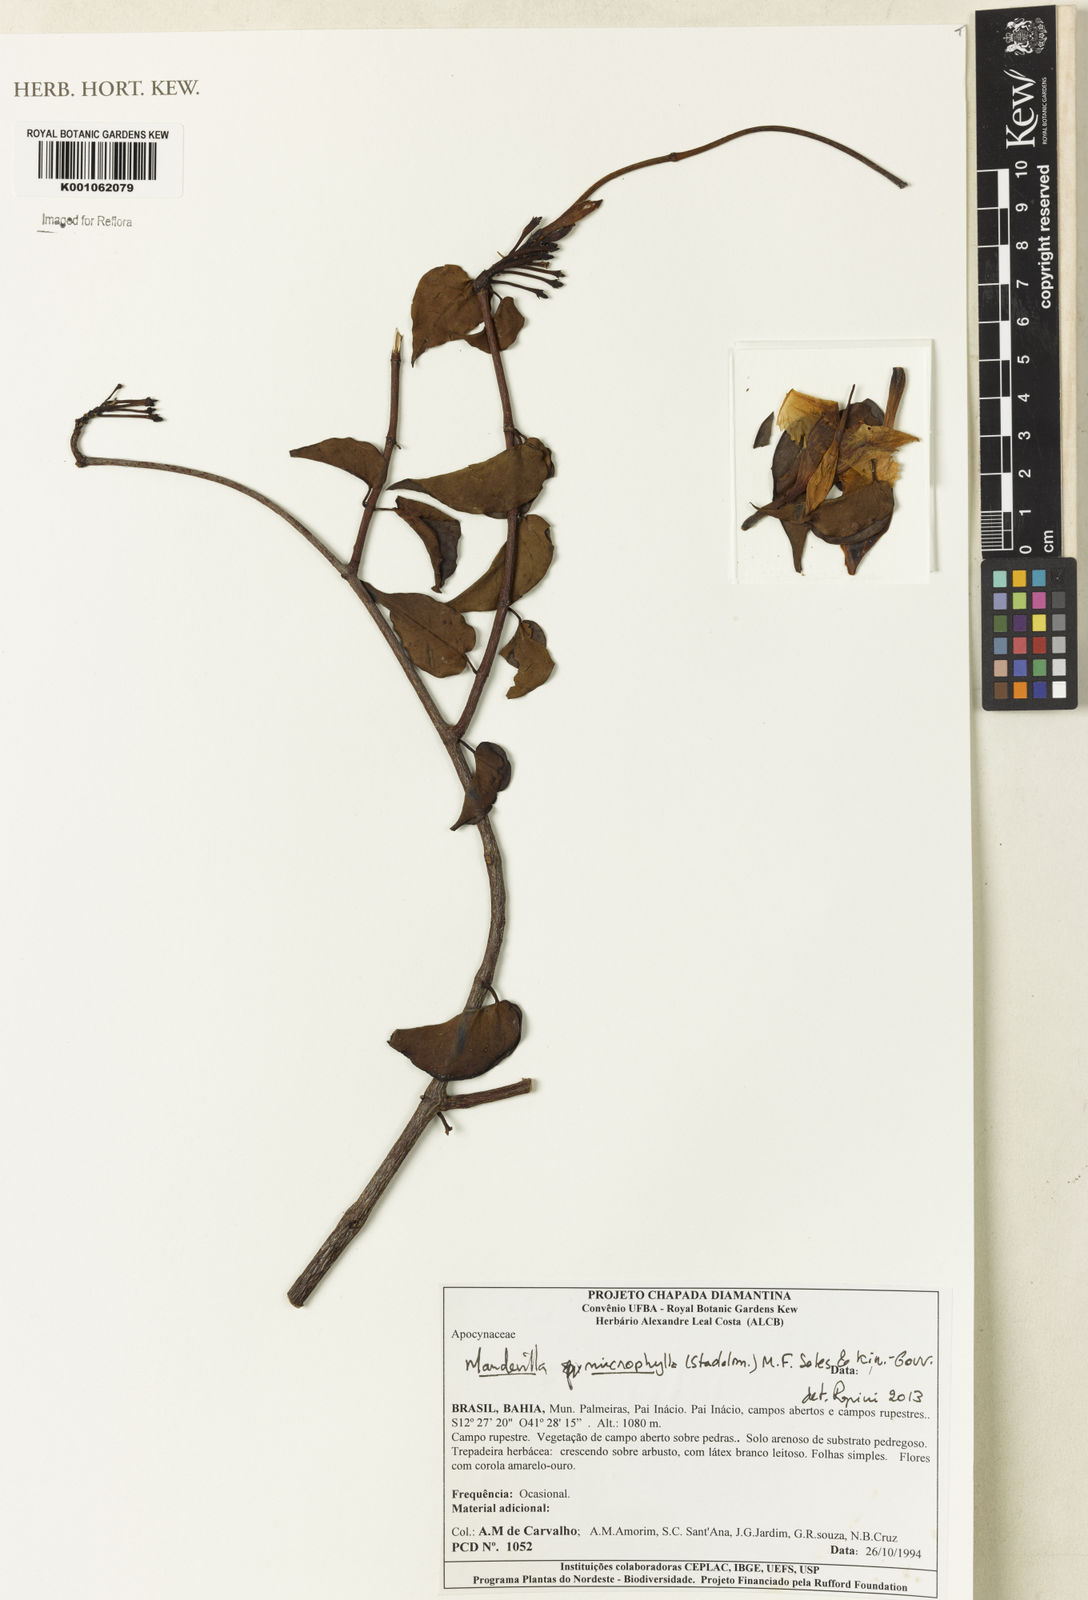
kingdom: Plantae
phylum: Tracheophyta
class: Magnoliopsida
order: Gentianales
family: Apocynaceae
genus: Mandevilla
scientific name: Mandevilla
